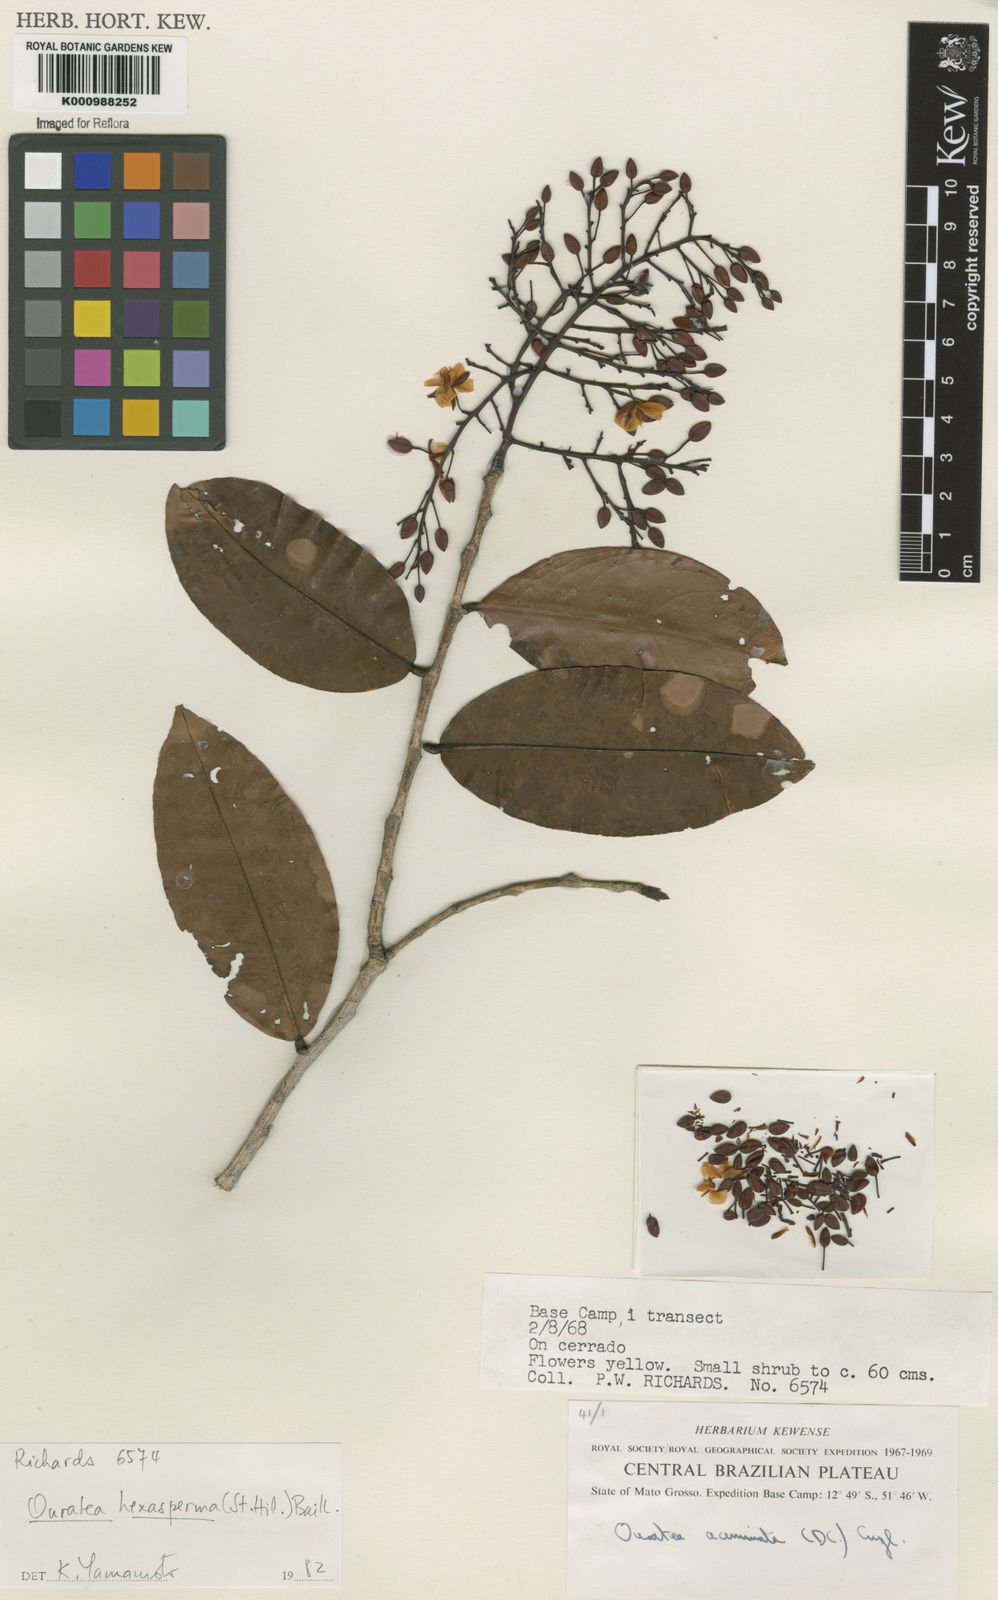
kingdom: Plantae
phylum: Tracheophyta
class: Magnoliopsida
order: Malpighiales
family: Ochnaceae
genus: Ouratea
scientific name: Ouratea hexasperma
